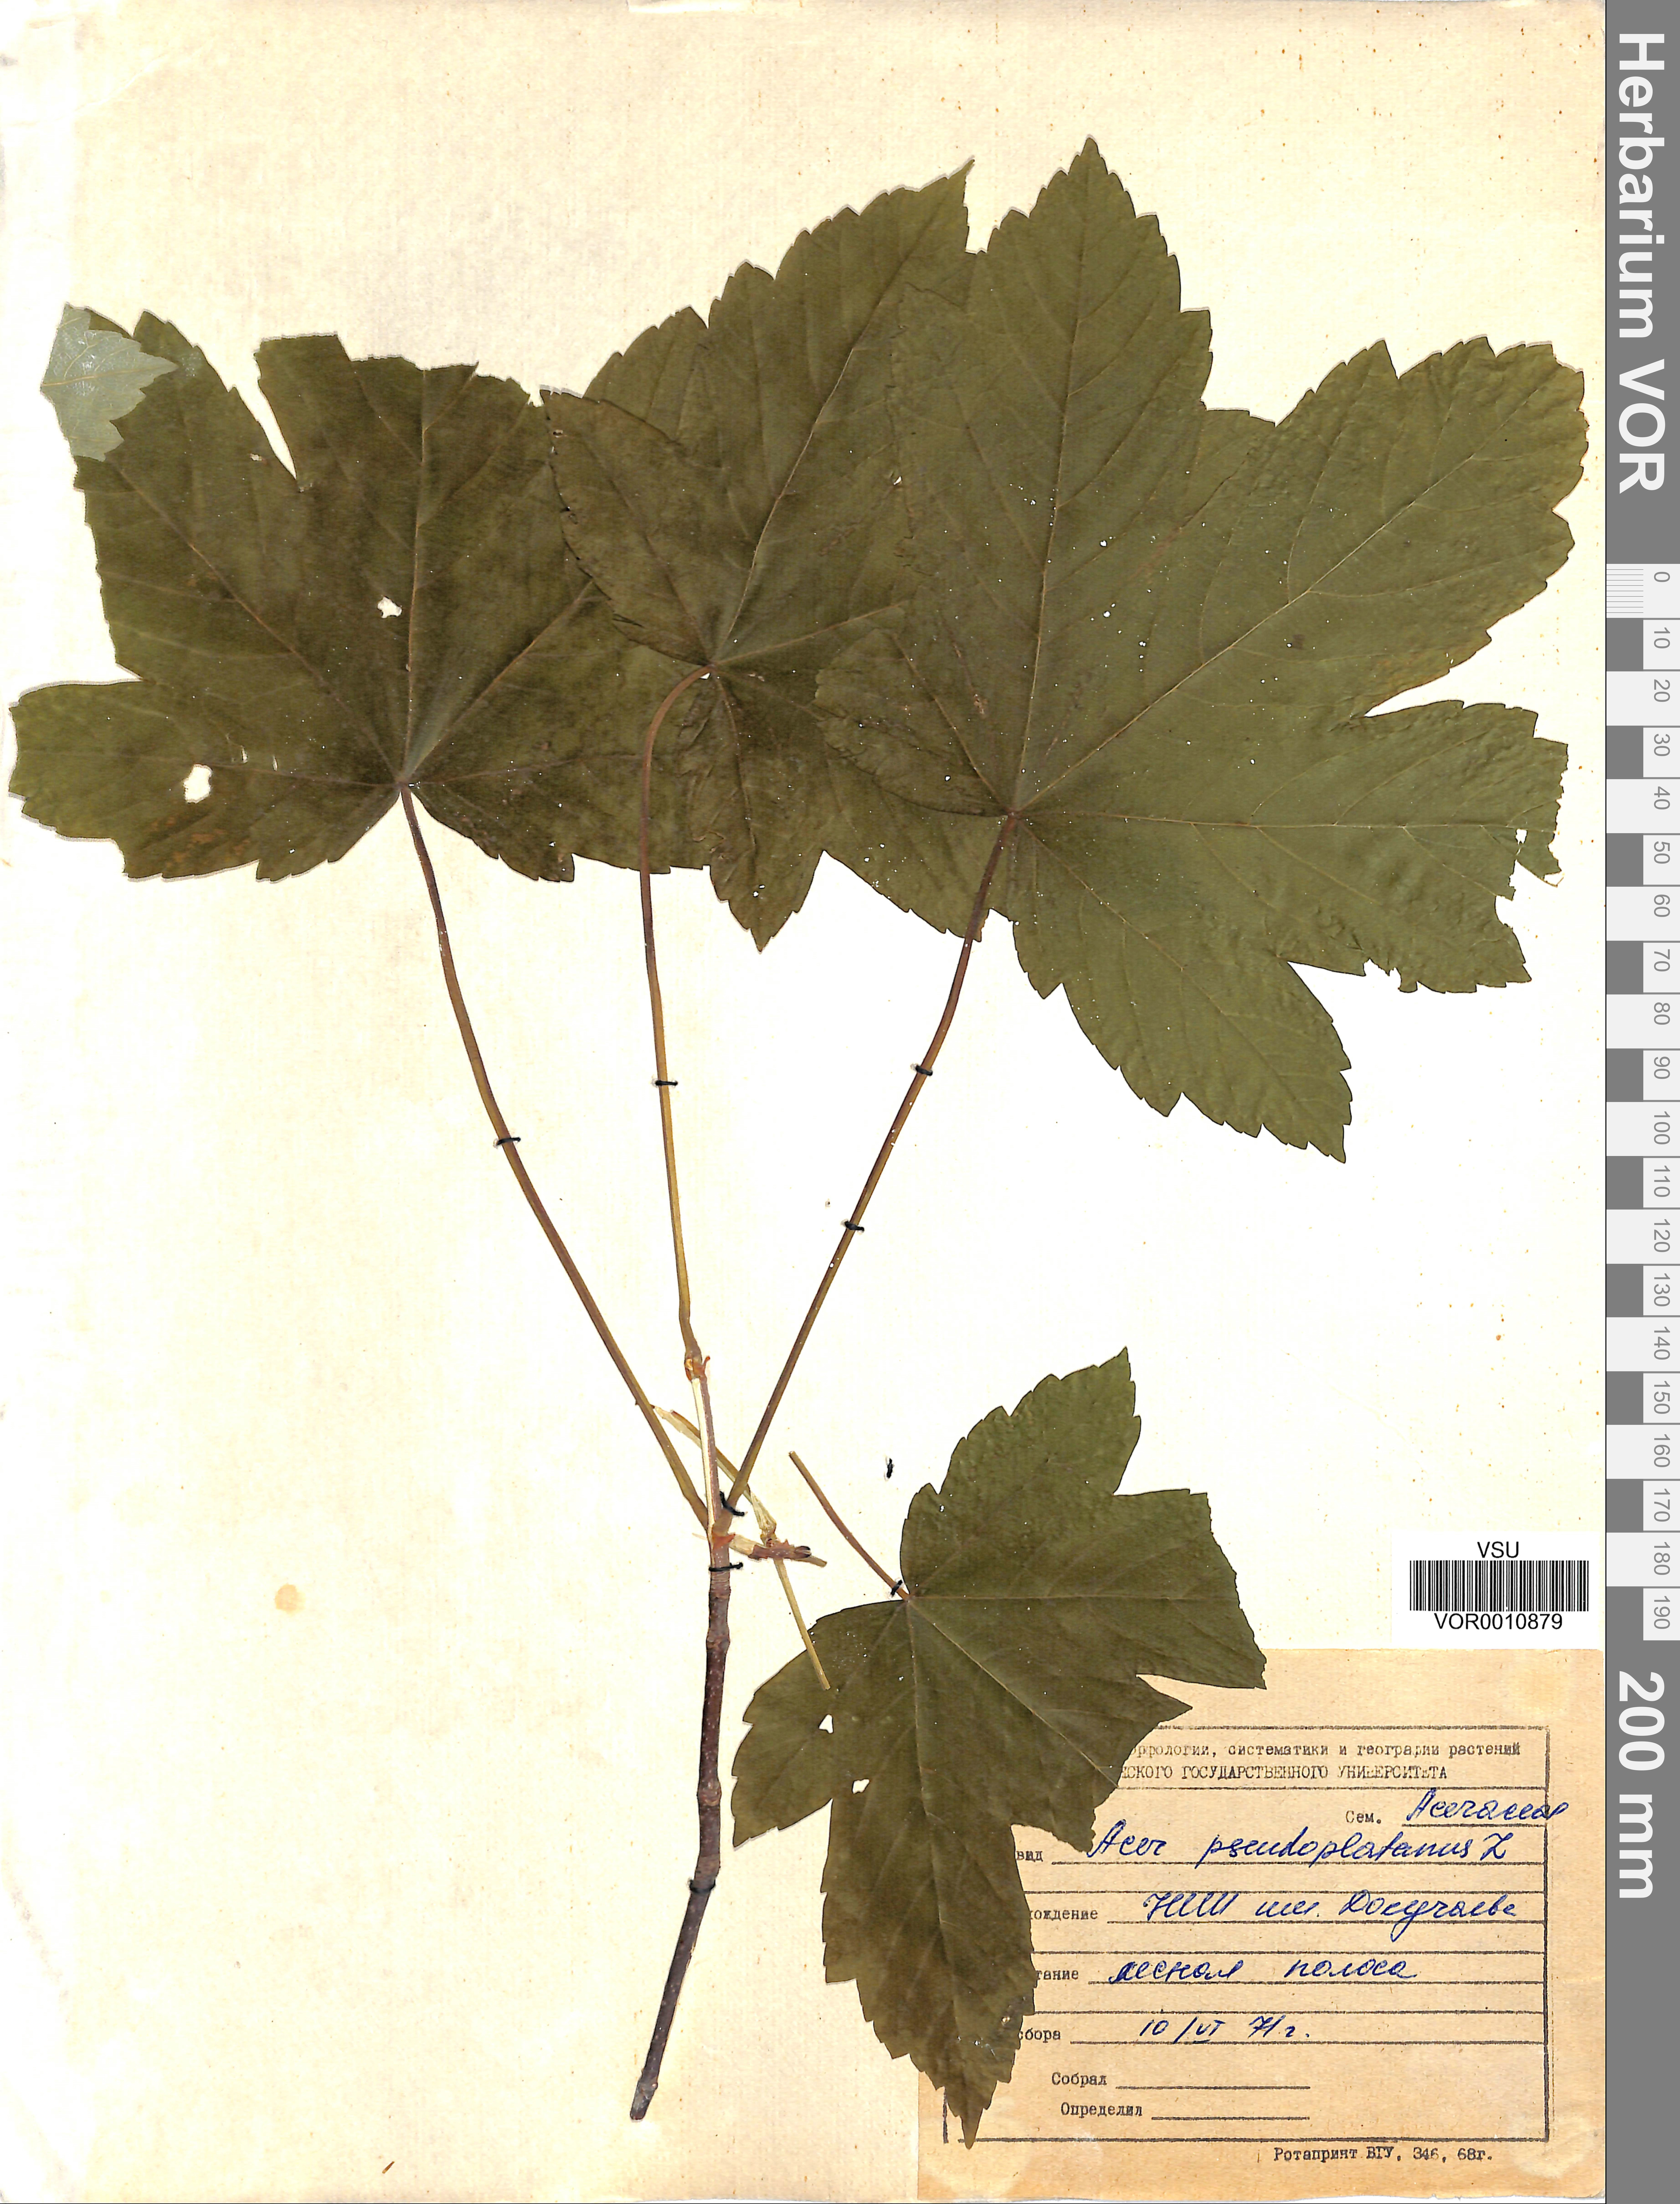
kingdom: Plantae
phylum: Tracheophyta
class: Magnoliopsida
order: Sapindales
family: Sapindaceae
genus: Acer
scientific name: Acer pseudoplatanus
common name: Sycamore
